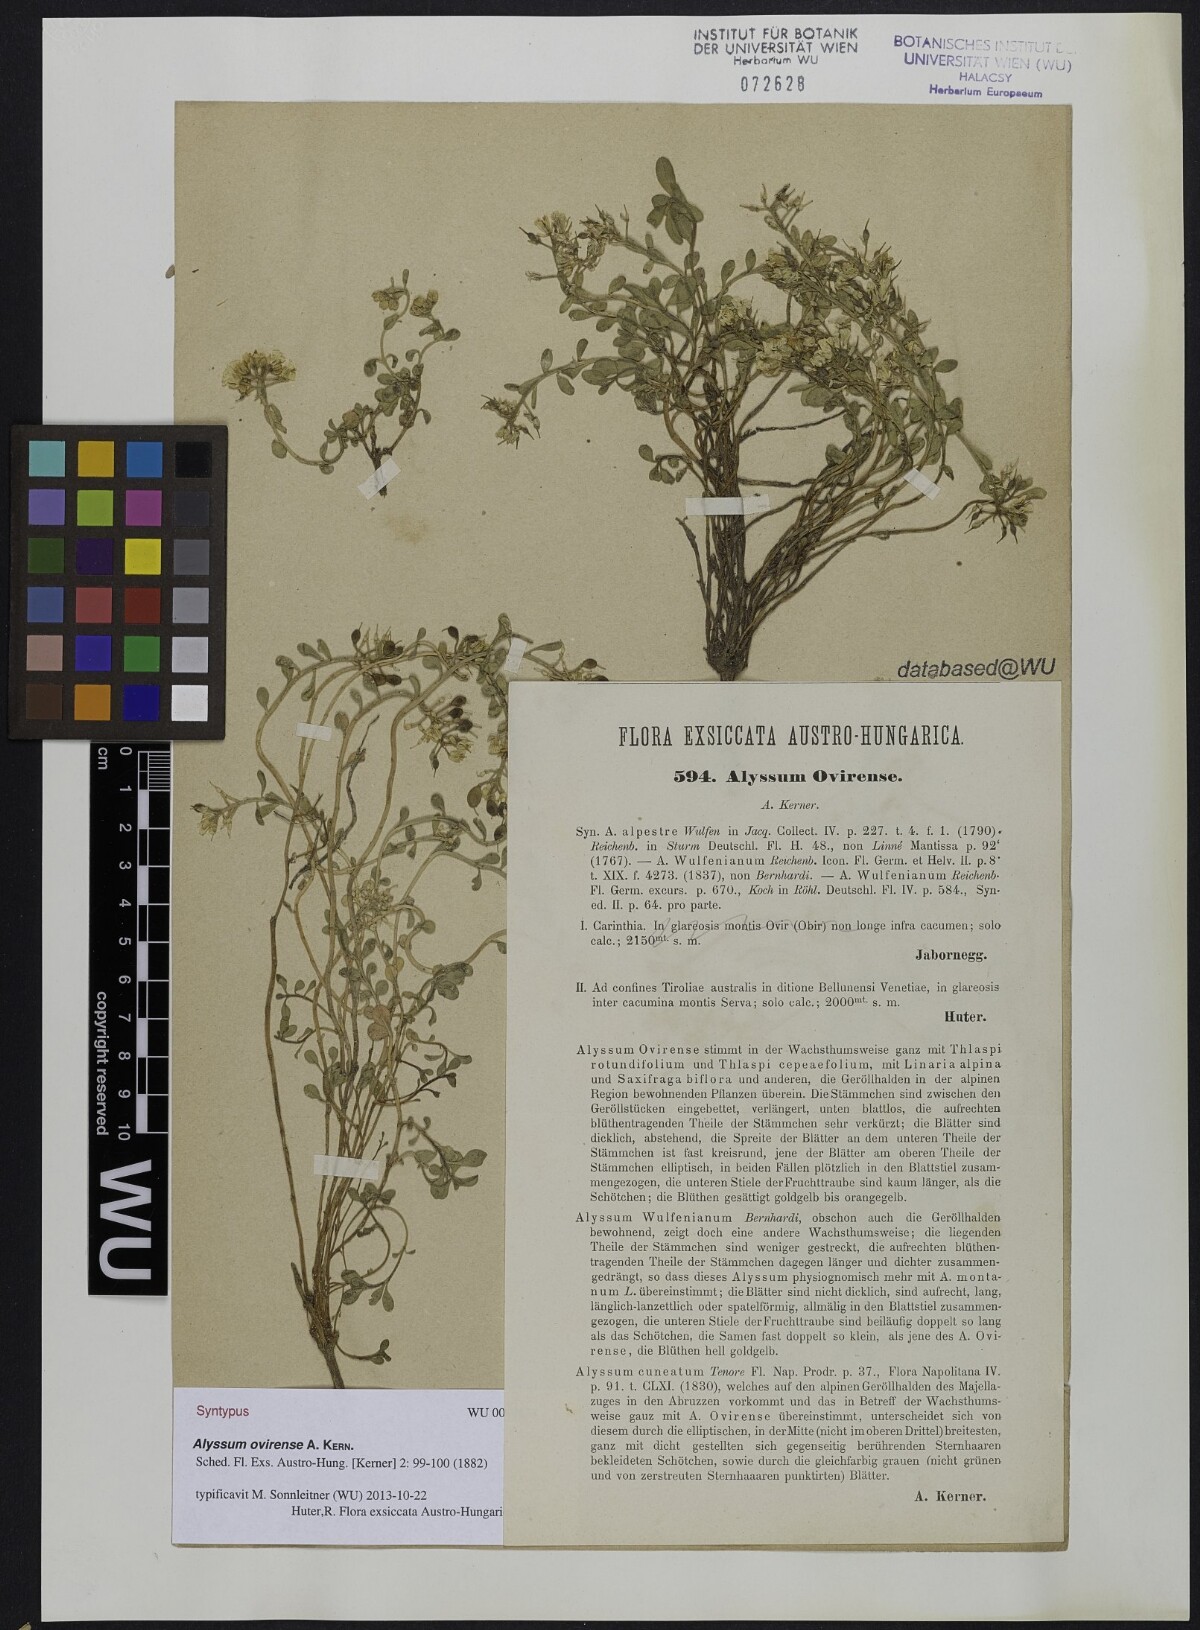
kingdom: Plantae
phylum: Tracheophyta
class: Magnoliopsida
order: Brassicales
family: Brassicaceae
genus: Alyssum
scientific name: Alyssum wulfenianum
